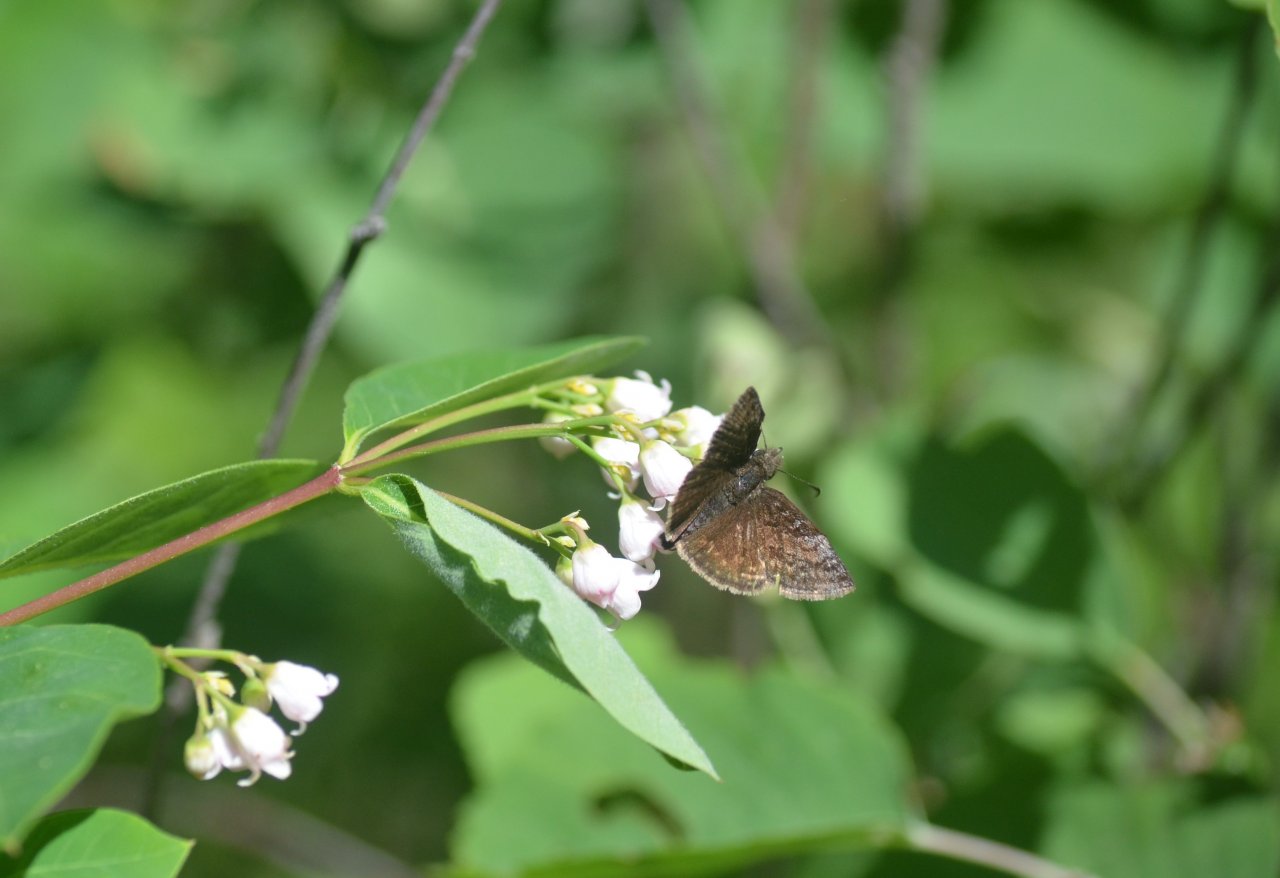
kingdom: Animalia
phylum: Arthropoda
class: Insecta
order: Lepidoptera
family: Hesperiidae
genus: Erynnis
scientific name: Erynnis icelus
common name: Dreamy Duskywing
